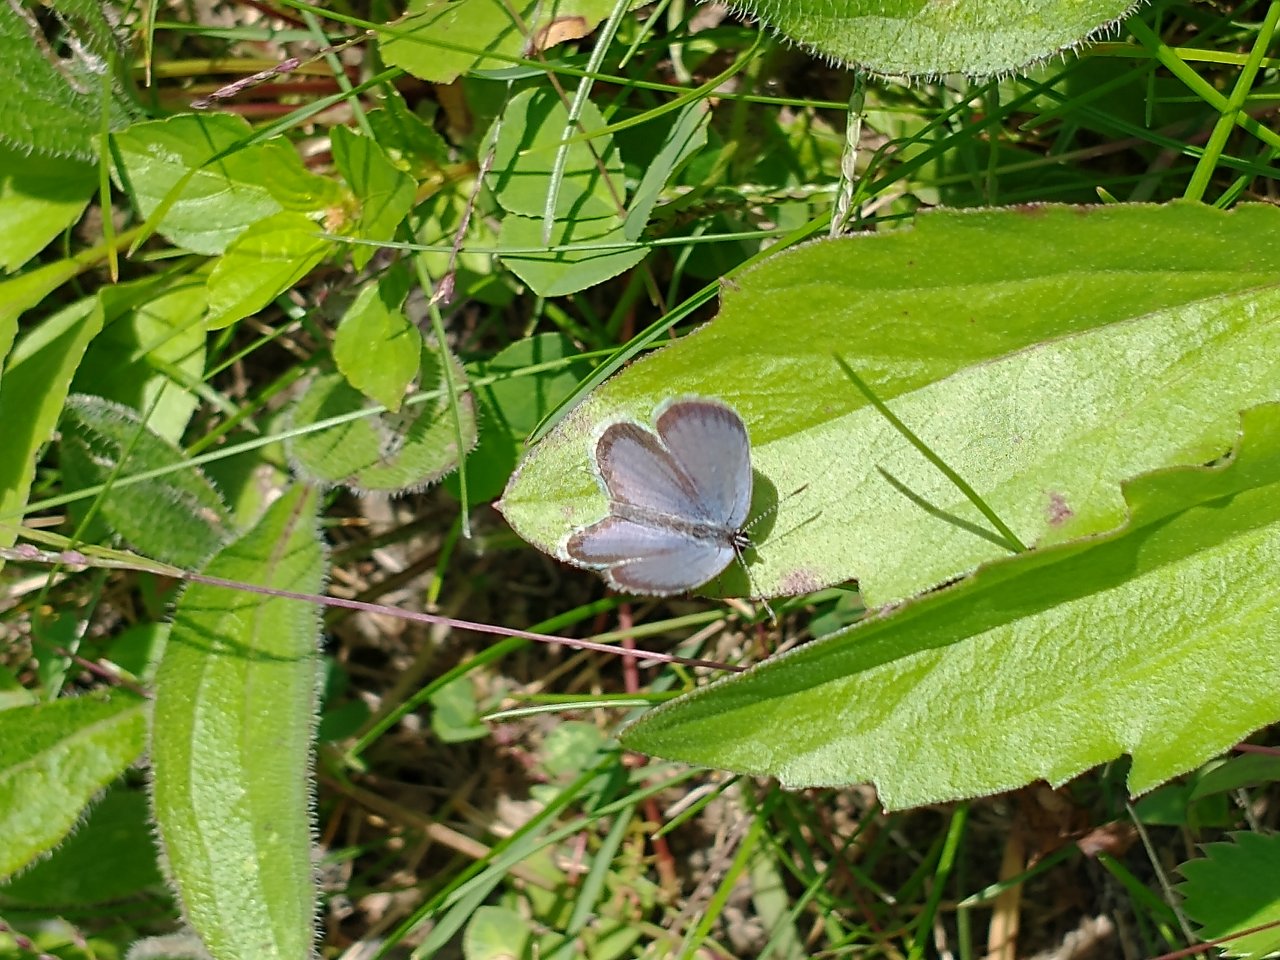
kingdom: Animalia
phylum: Arthropoda
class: Insecta
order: Lepidoptera
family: Lycaenidae
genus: Celastrina
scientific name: Celastrina
